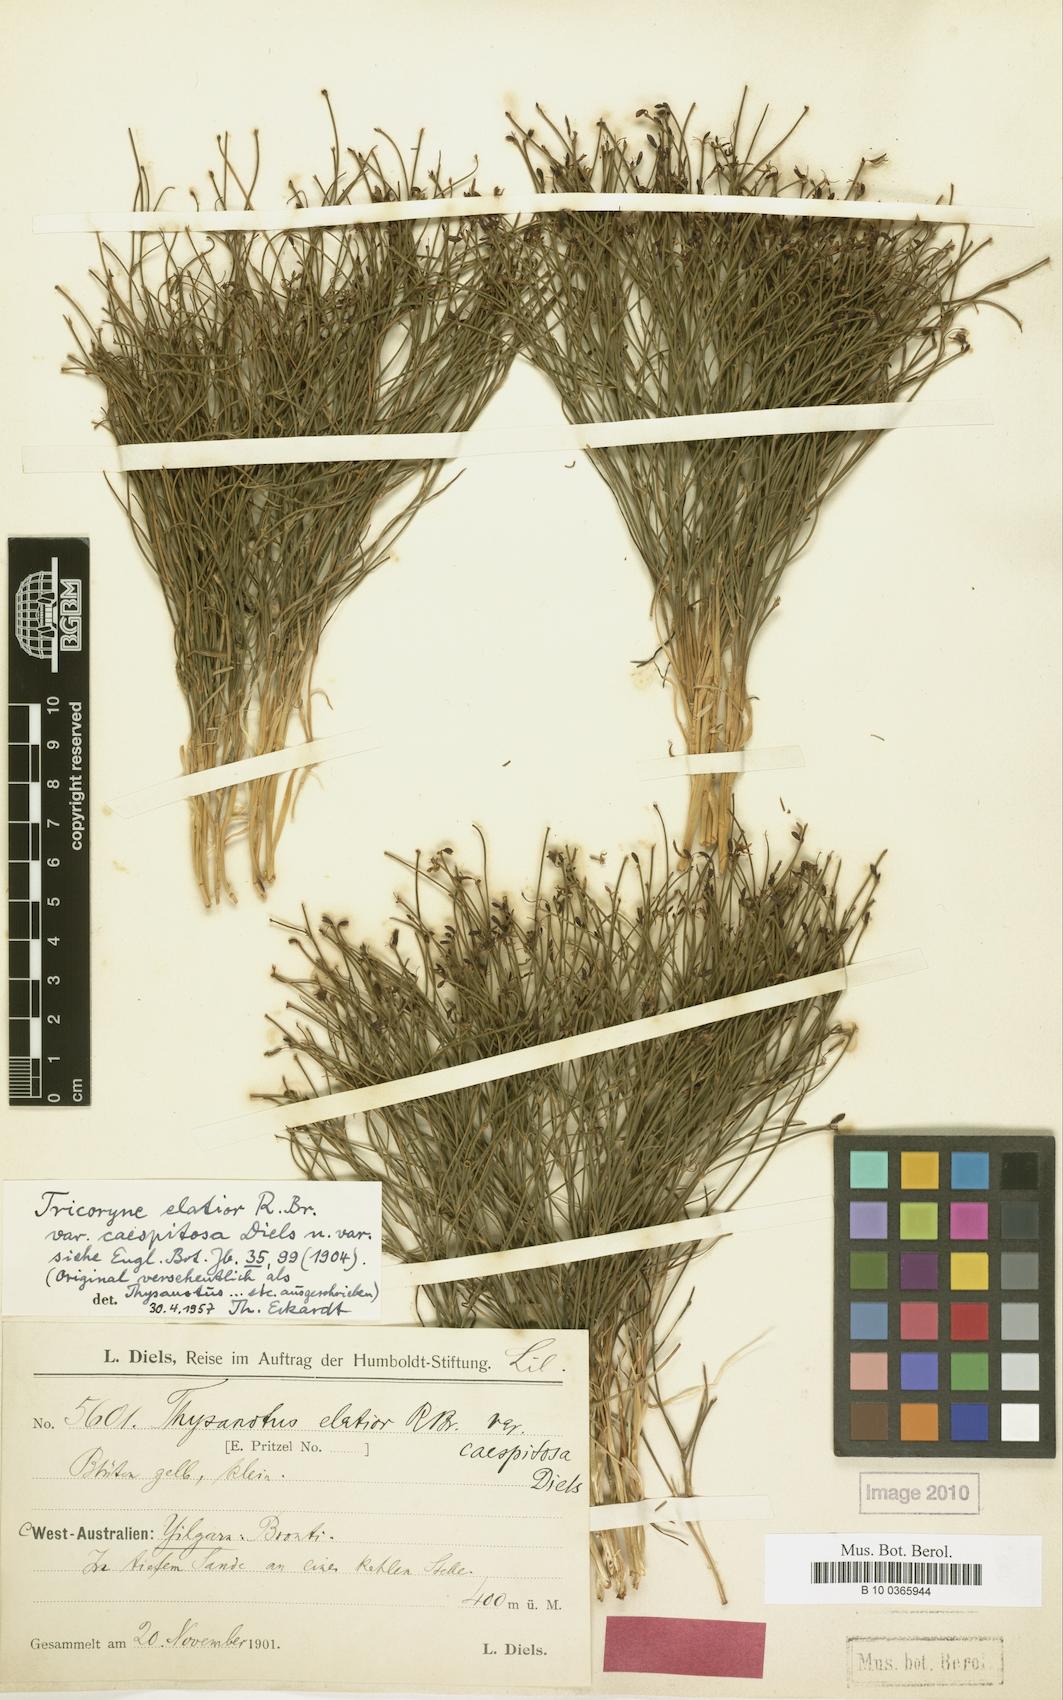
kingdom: Plantae
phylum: Tracheophyta
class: Liliopsida
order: Asparagales
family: Asphodelaceae
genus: Tricoryne
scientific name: Tricoryne tenella
